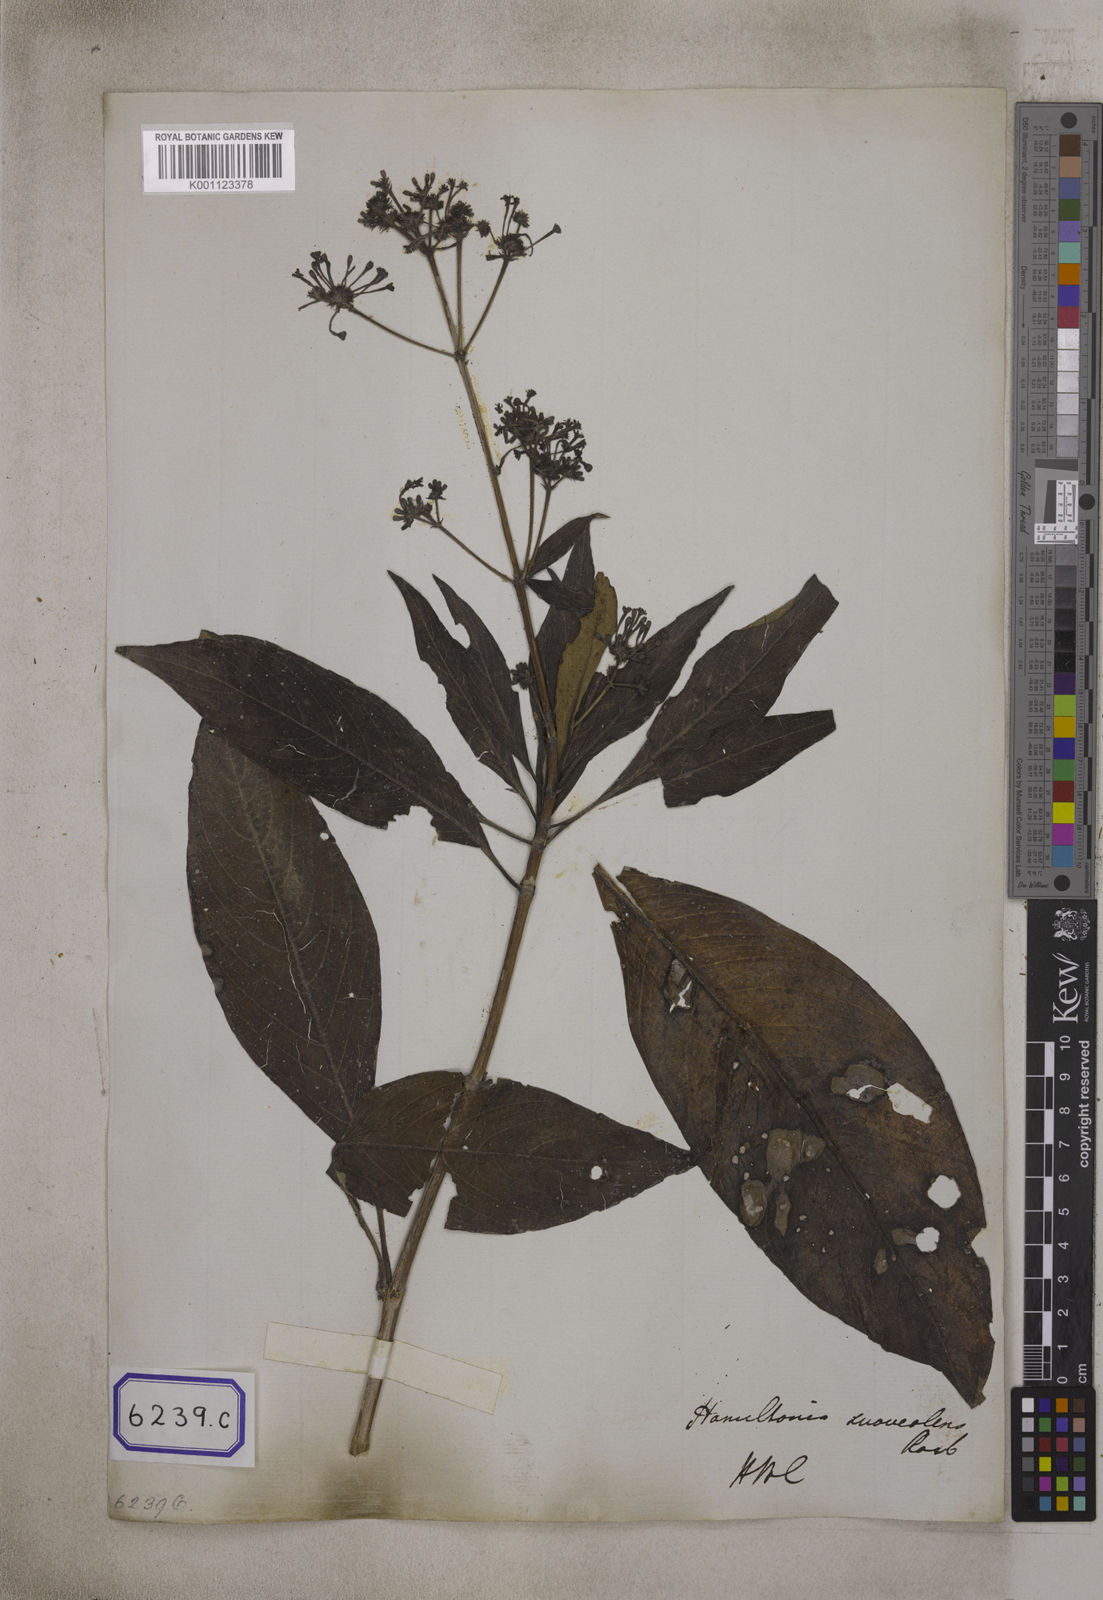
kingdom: Plantae
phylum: Tracheophyta
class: Magnoliopsida
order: Gentianales
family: Rubiaceae
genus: Spermadictyon
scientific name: Spermadictyon suaveolens
